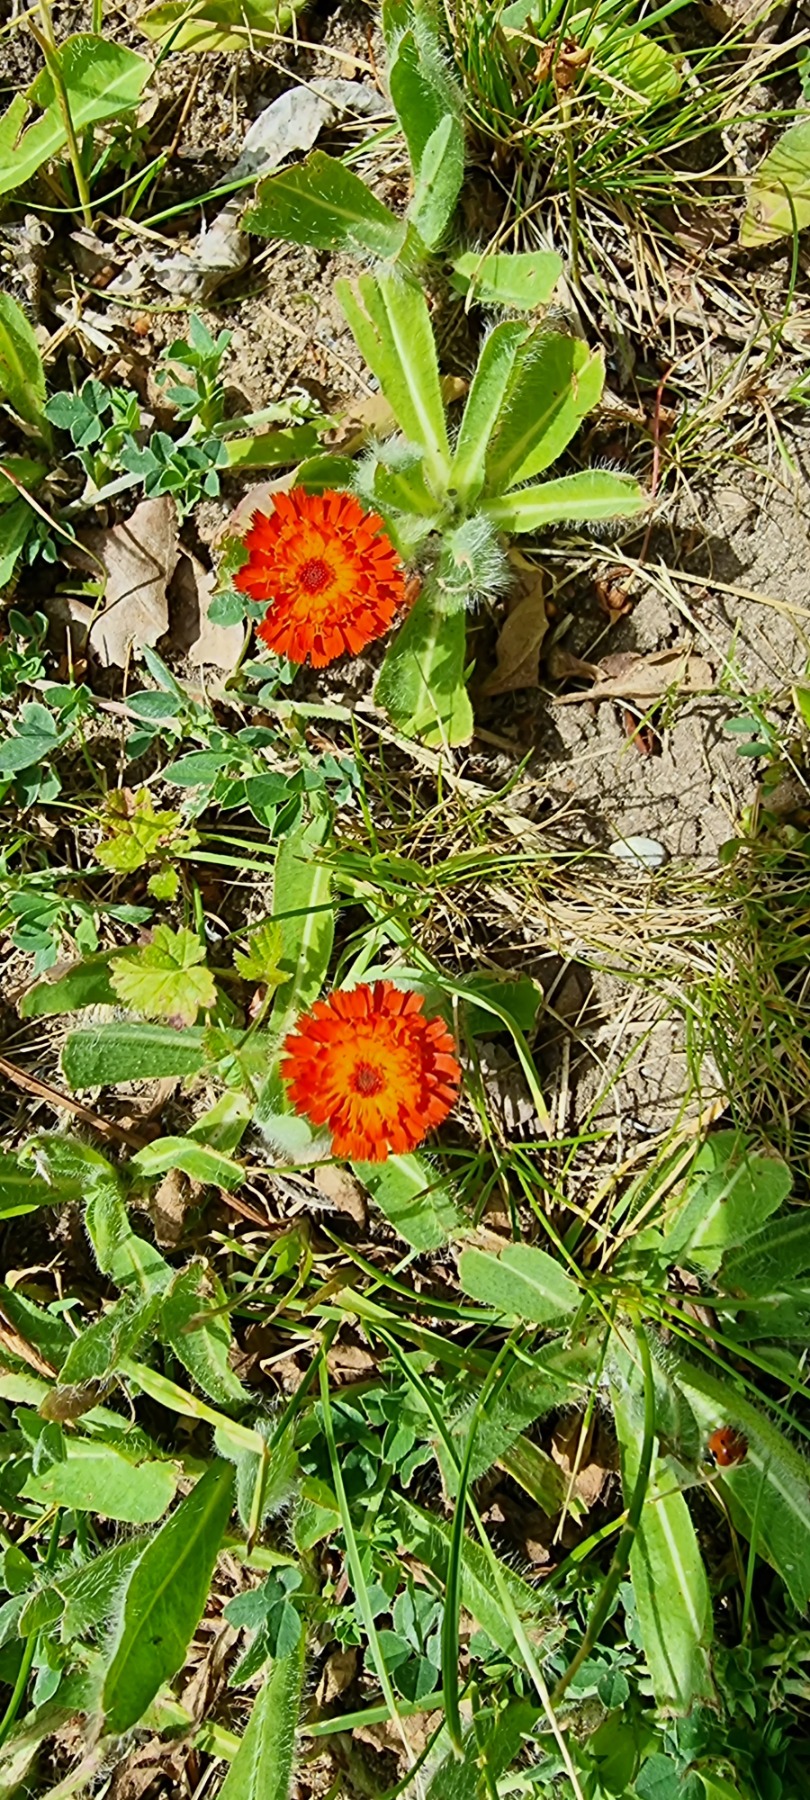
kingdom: Plantae
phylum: Tracheophyta
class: Magnoliopsida
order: Asterales
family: Asteraceae
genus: Pilosella
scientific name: Pilosella aurantiaca
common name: Pomerans-høgeurt
